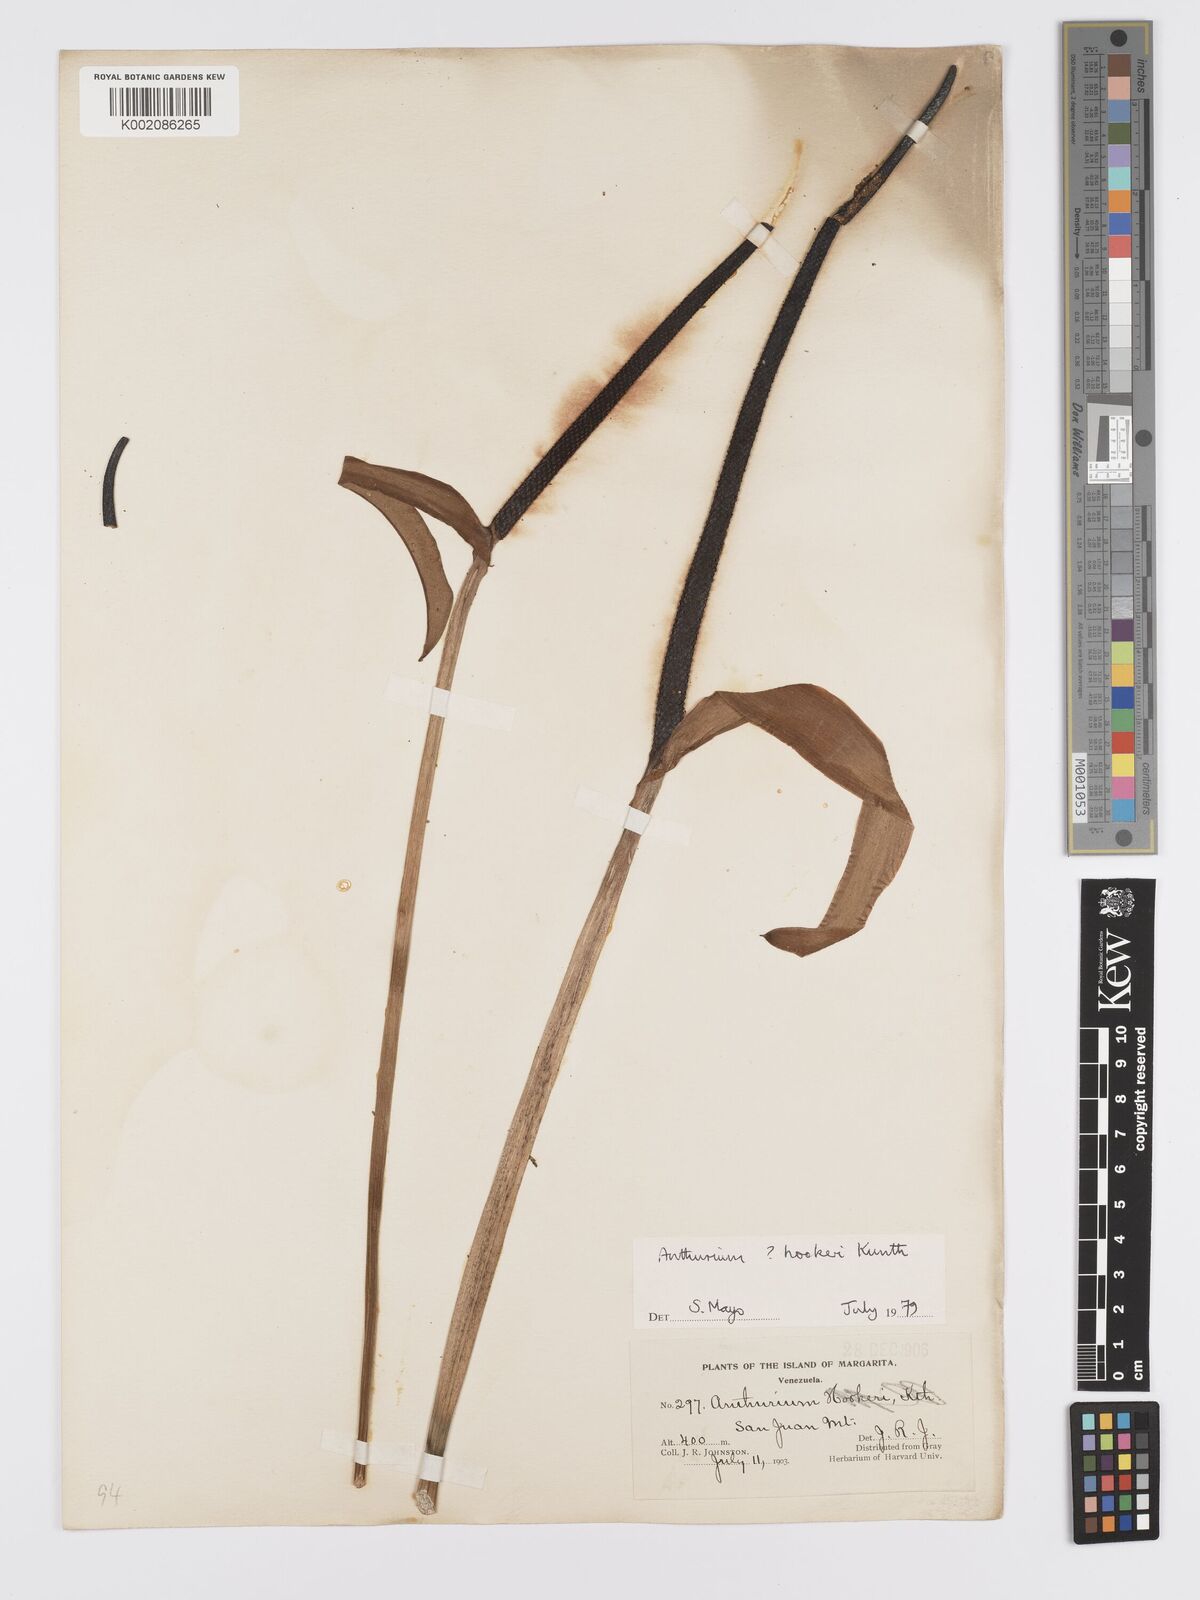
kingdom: Plantae
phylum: Tracheophyta
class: Liliopsida
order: Alismatales
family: Araceae
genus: Anthurium
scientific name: Anthurium hookeri
